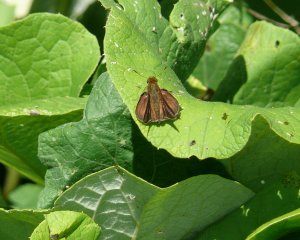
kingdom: Animalia
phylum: Arthropoda
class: Insecta
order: Lepidoptera
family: Hesperiidae
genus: Euphyes
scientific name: Euphyes vestris
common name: Dun Skipper
